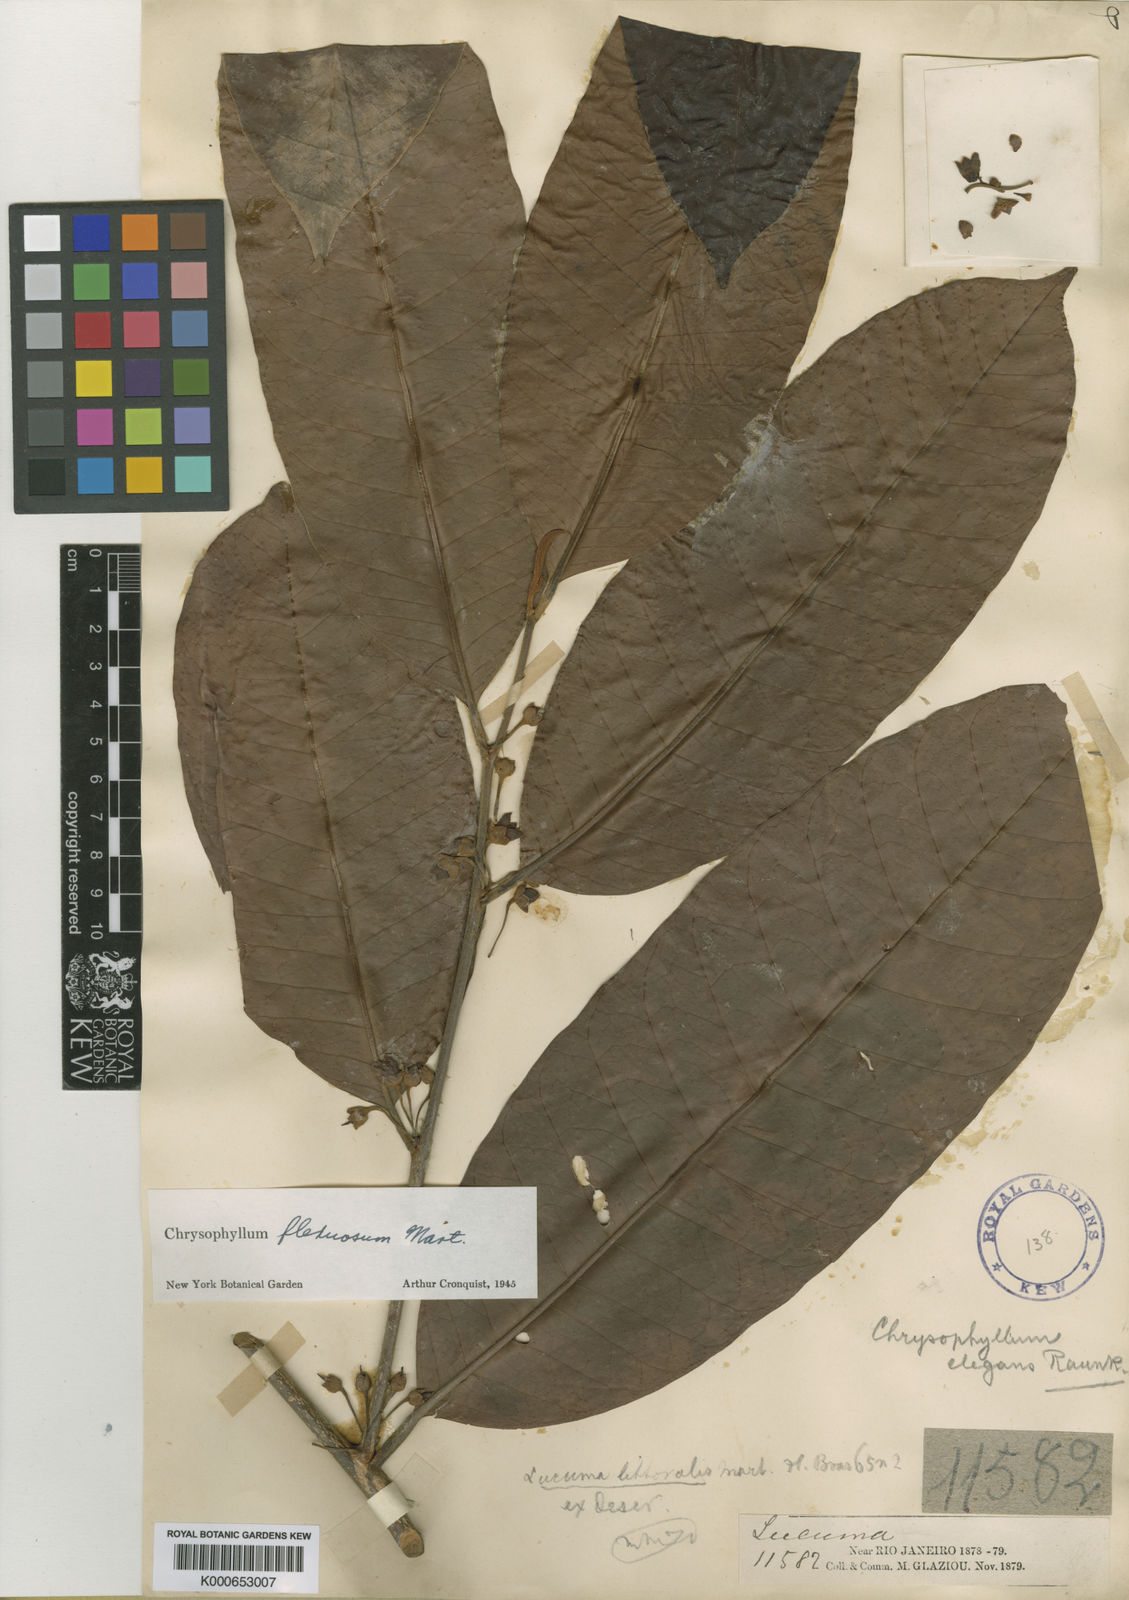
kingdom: Plantae
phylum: Tracheophyta
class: Magnoliopsida
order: Ericales
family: Sapotaceae
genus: Chrysophyllum
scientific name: Chrysophyllum flexuosum
